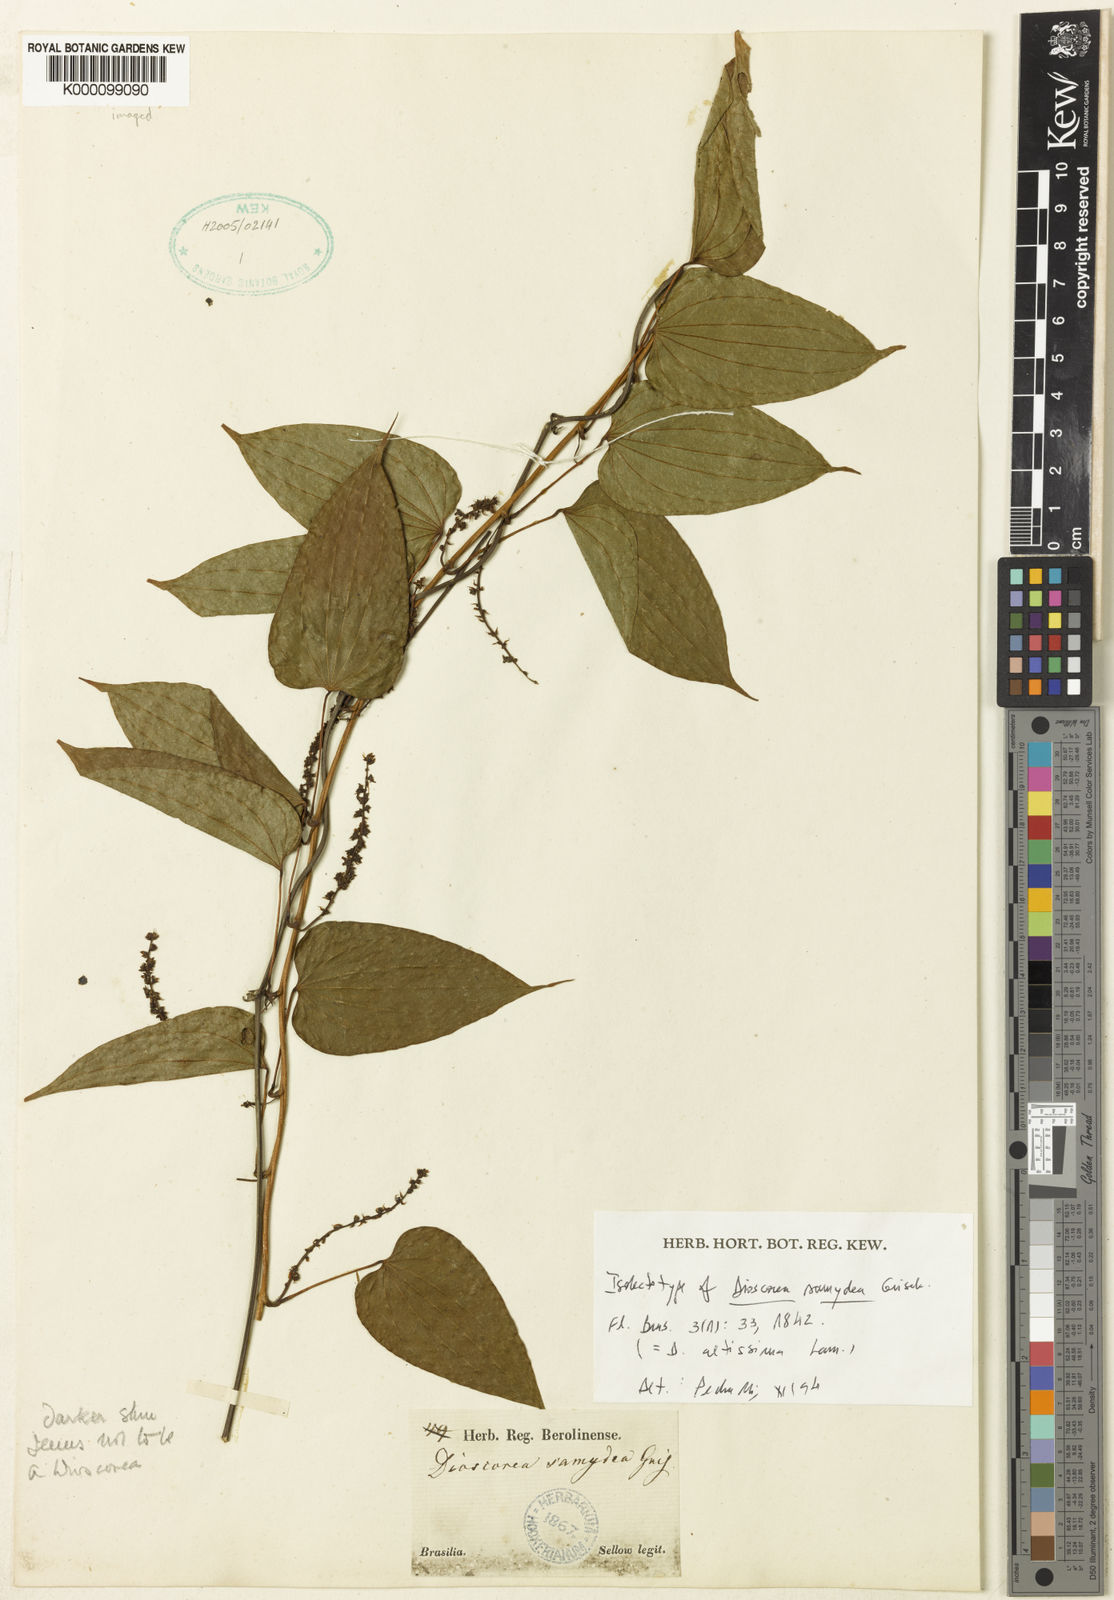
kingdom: Plantae
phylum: Tracheophyta
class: Liliopsida
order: Dioscoreales
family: Dioscoreaceae
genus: Dioscorea
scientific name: Dioscorea chondrocarpa
